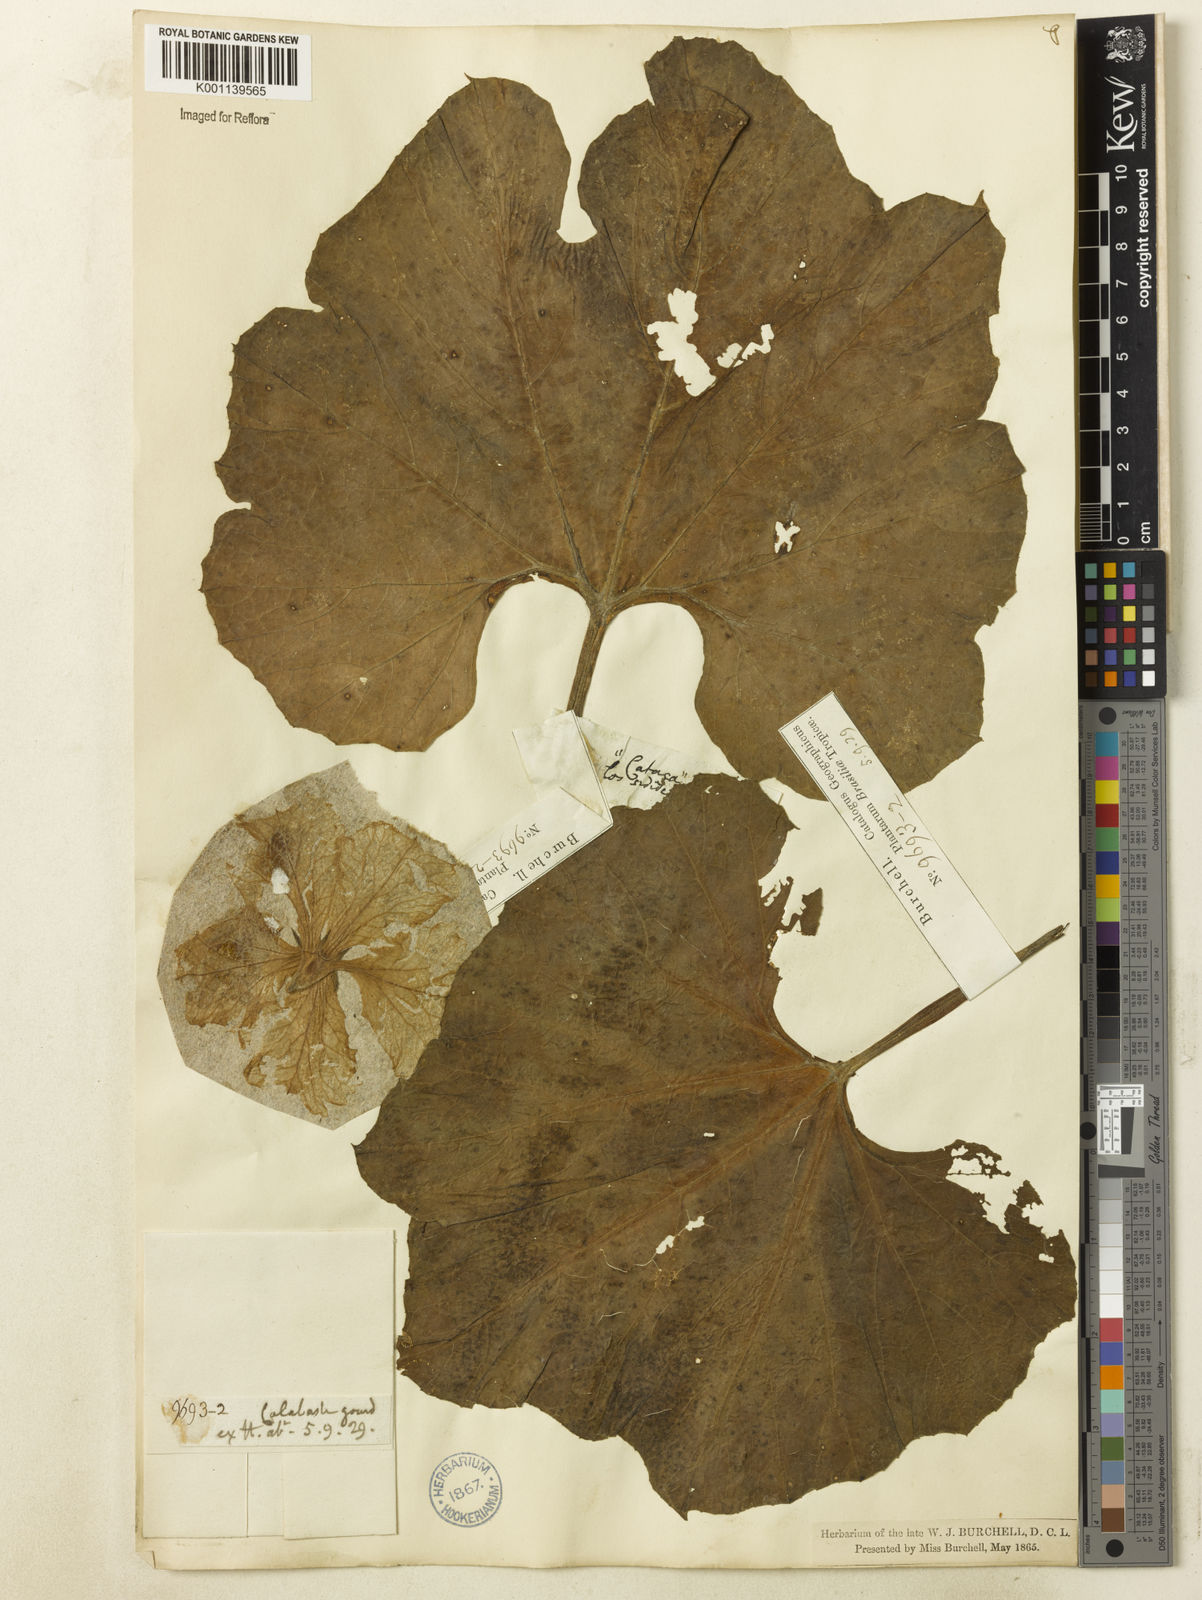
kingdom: Plantae
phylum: Tracheophyta
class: Magnoliopsida
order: Cucurbitales
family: Cucurbitaceae
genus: Lagenaria
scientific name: Lagenaria siceraria
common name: Bottle gourd
